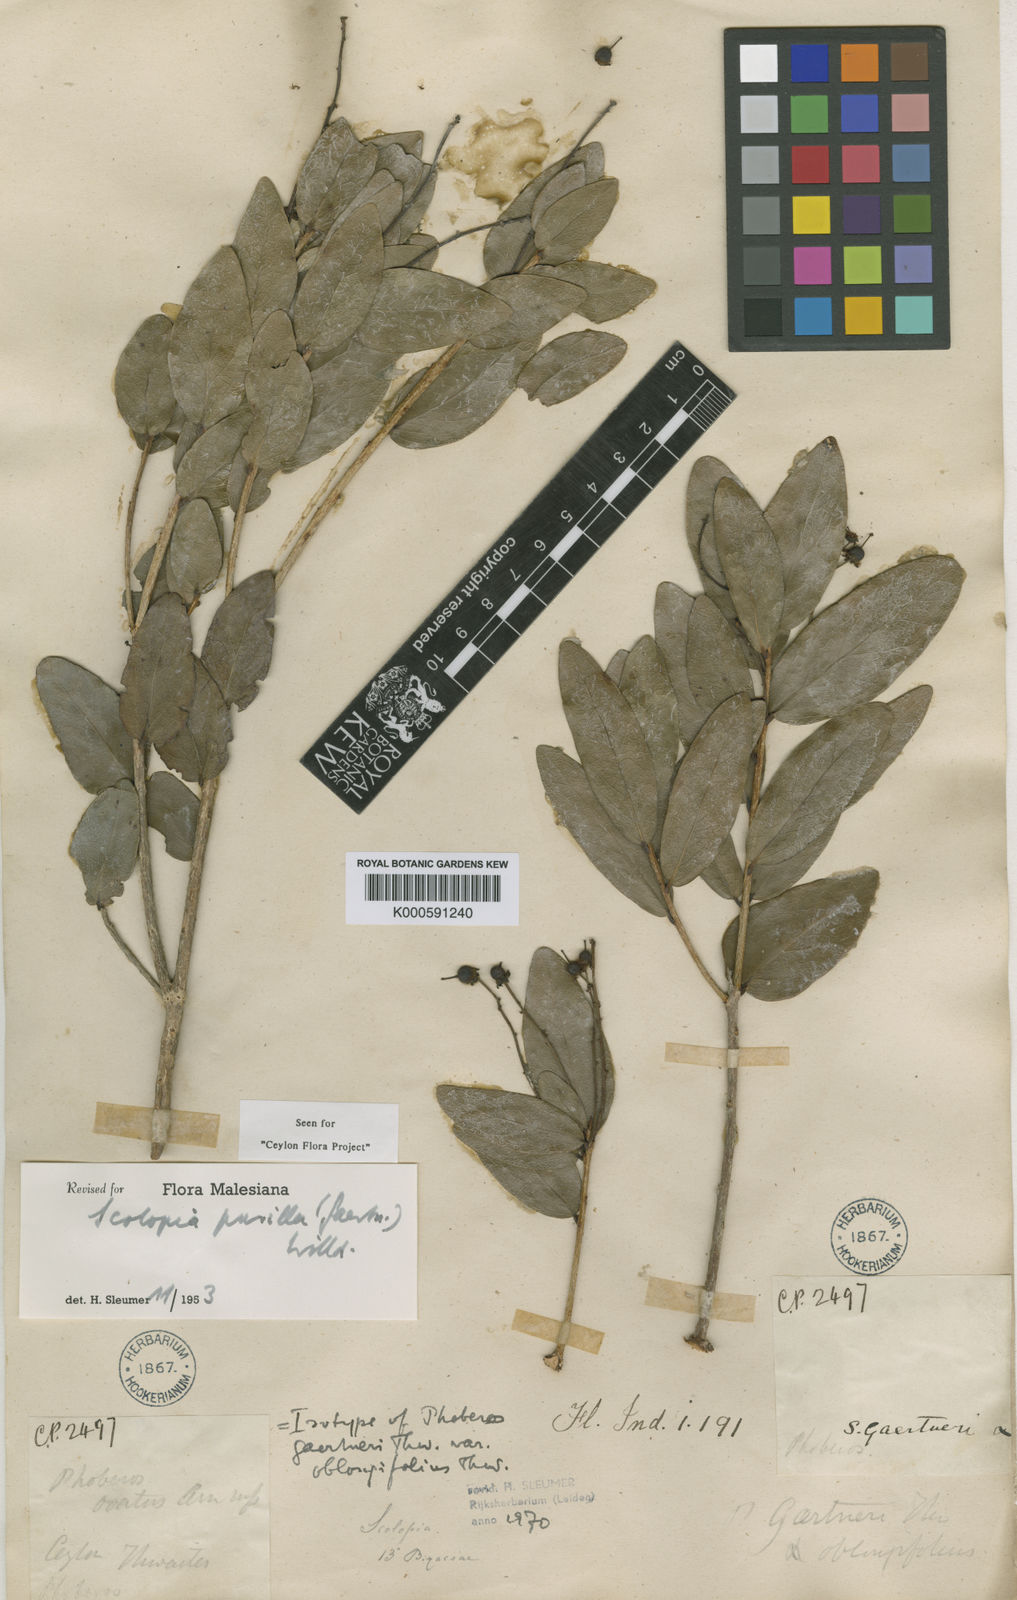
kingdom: Plantae
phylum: Tracheophyta
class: Magnoliopsida
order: Malpighiales
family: Salicaceae
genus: Scolopia
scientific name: Scolopia pusilla
